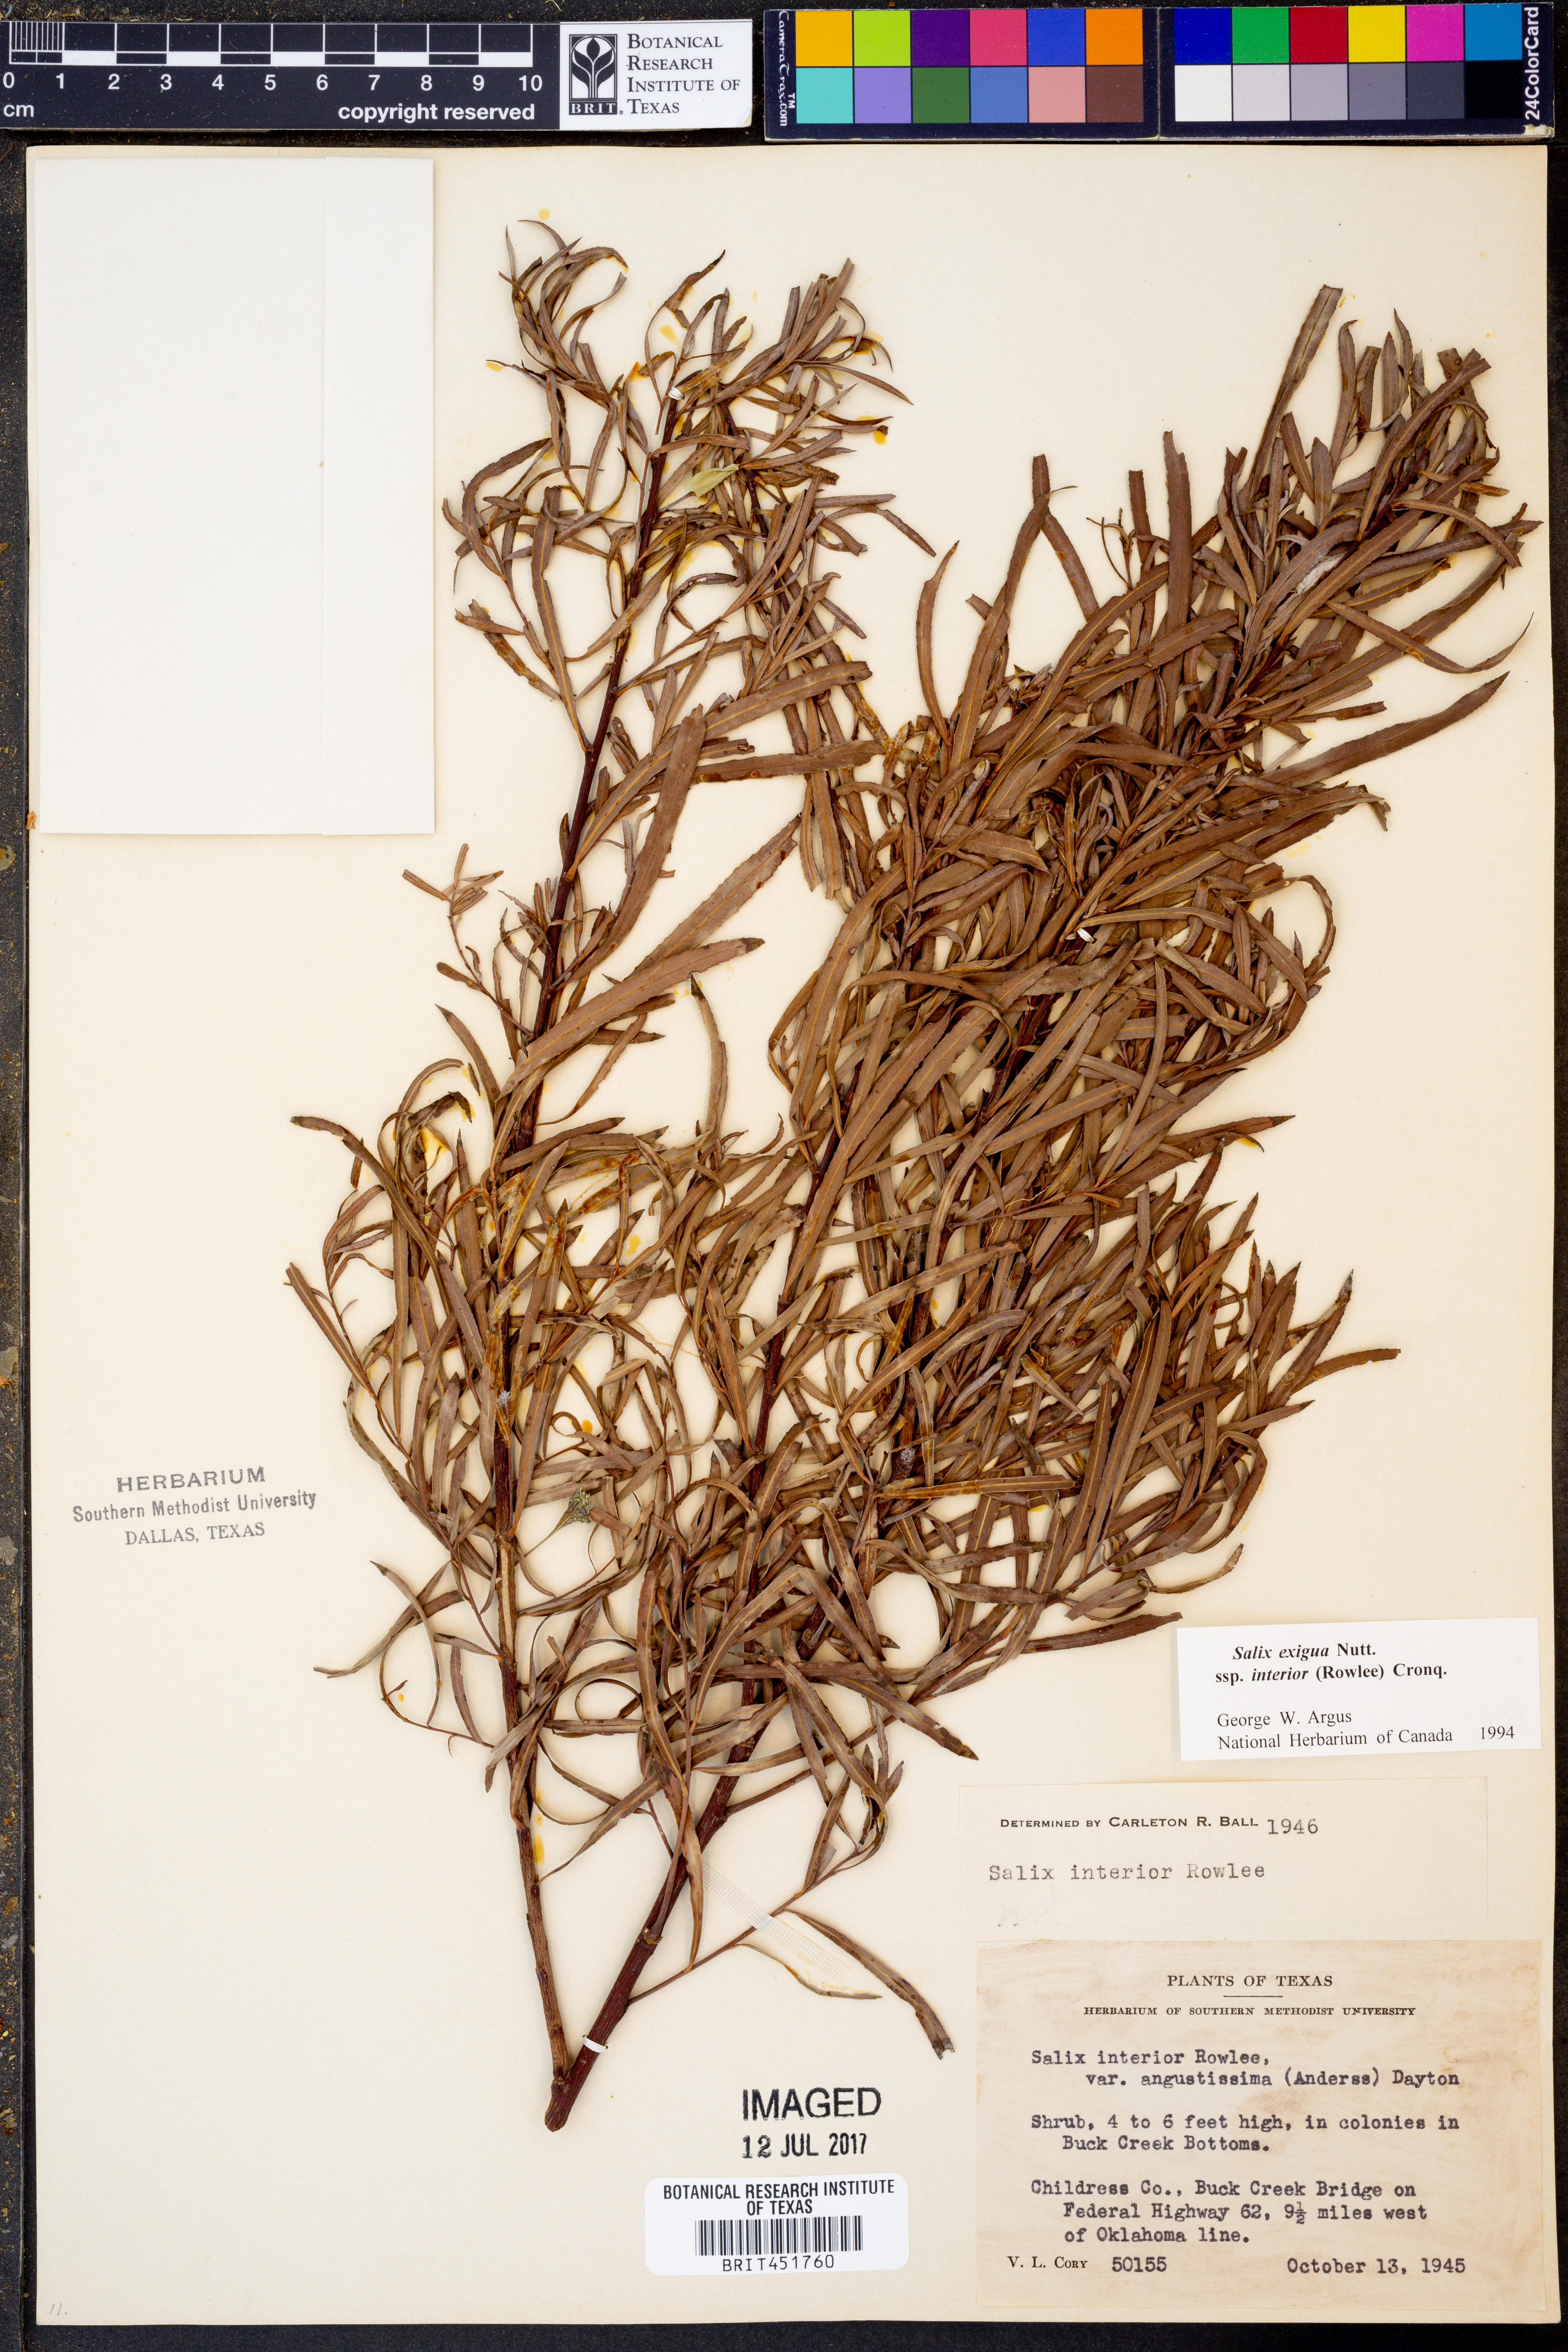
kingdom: Plantae
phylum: Tracheophyta
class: Magnoliopsida
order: Malpighiales
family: Salicaceae
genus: Salix
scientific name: Salix interior
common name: Sandbar willow
